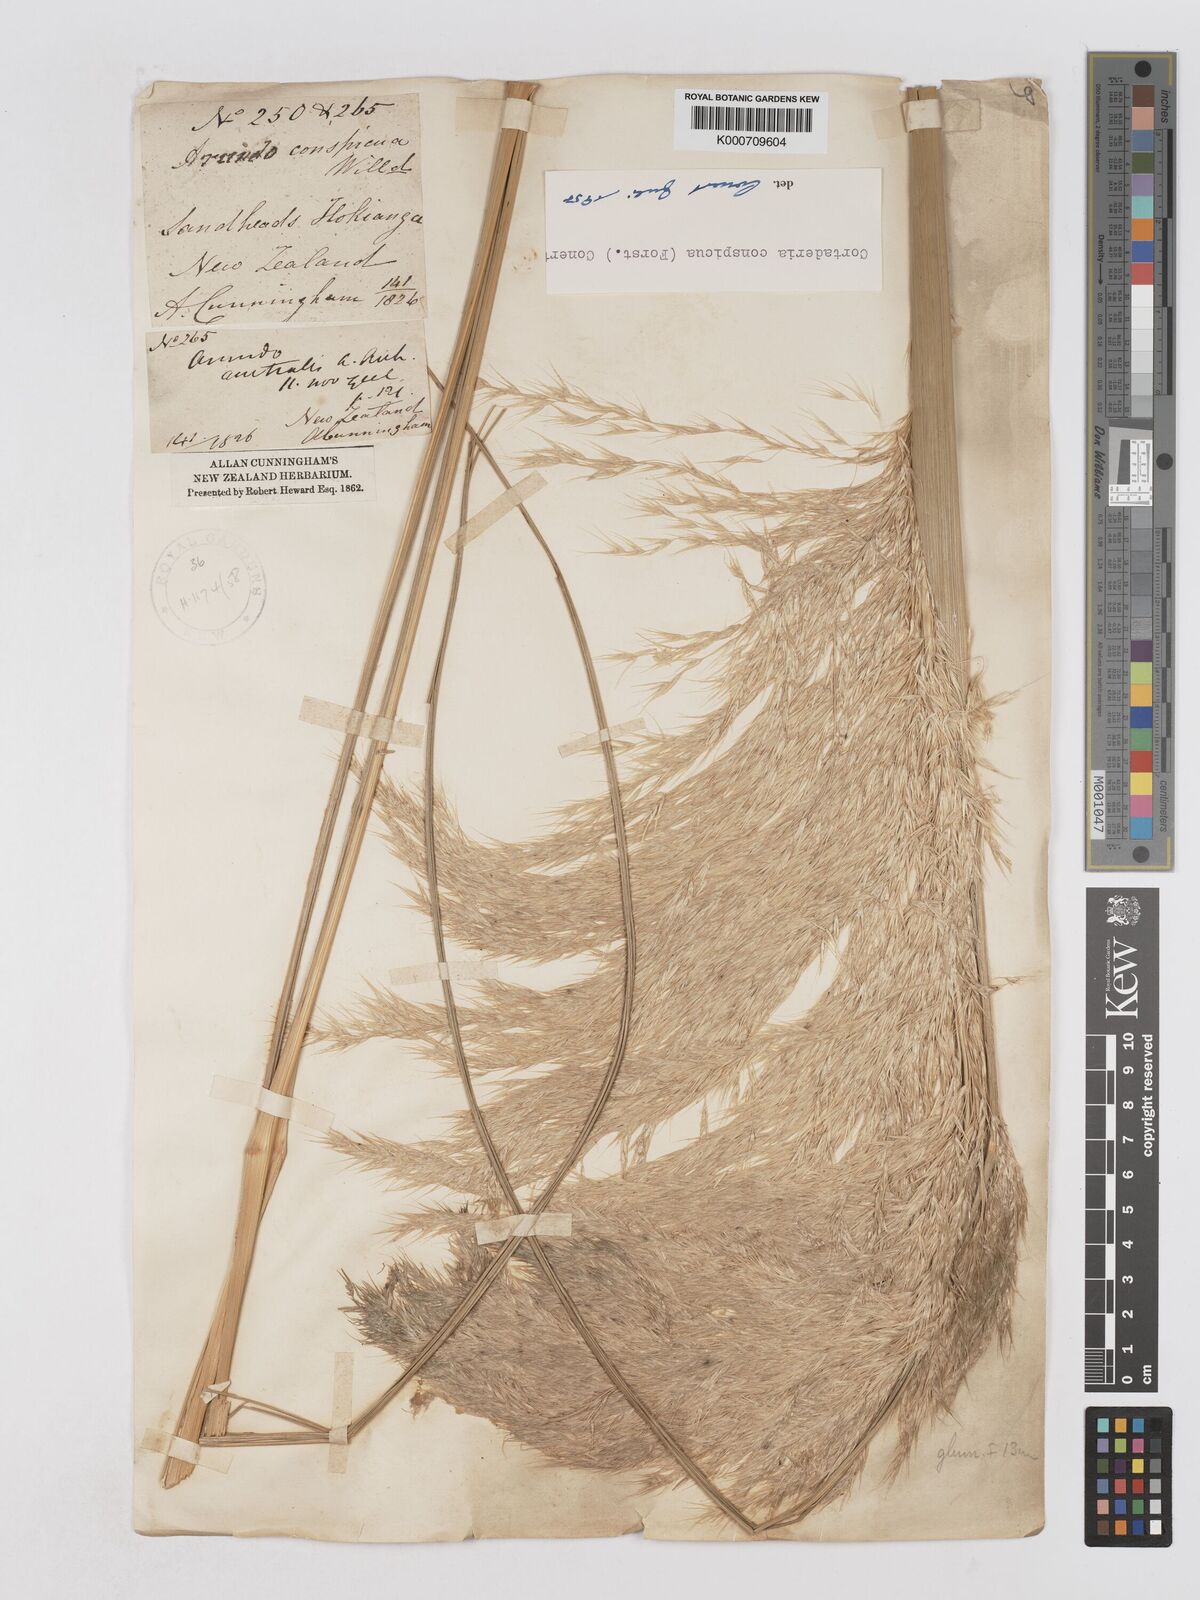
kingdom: Plantae
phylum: Tracheophyta
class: Liliopsida
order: Poales
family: Poaceae
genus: Austroderia
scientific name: Austroderia richardii
